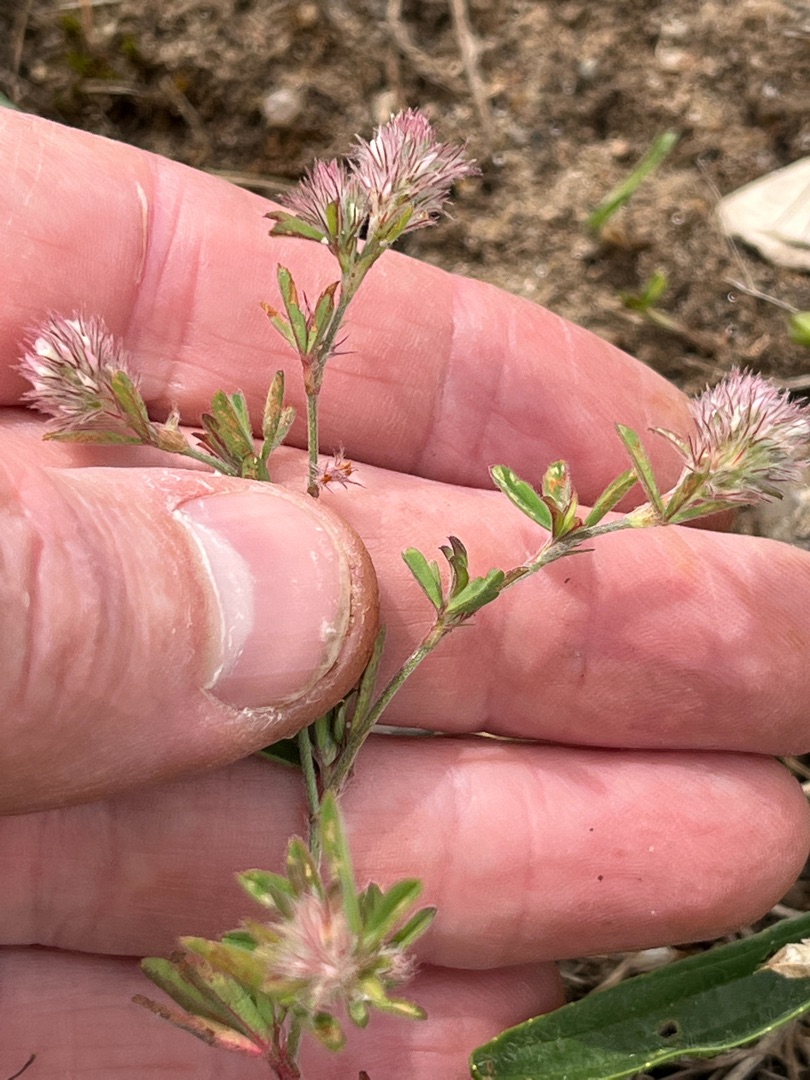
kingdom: Plantae
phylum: Tracheophyta
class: Magnoliopsida
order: Fabales
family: Fabaceae
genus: Trifolium
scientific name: Trifolium arvense
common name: Hare-kløver
